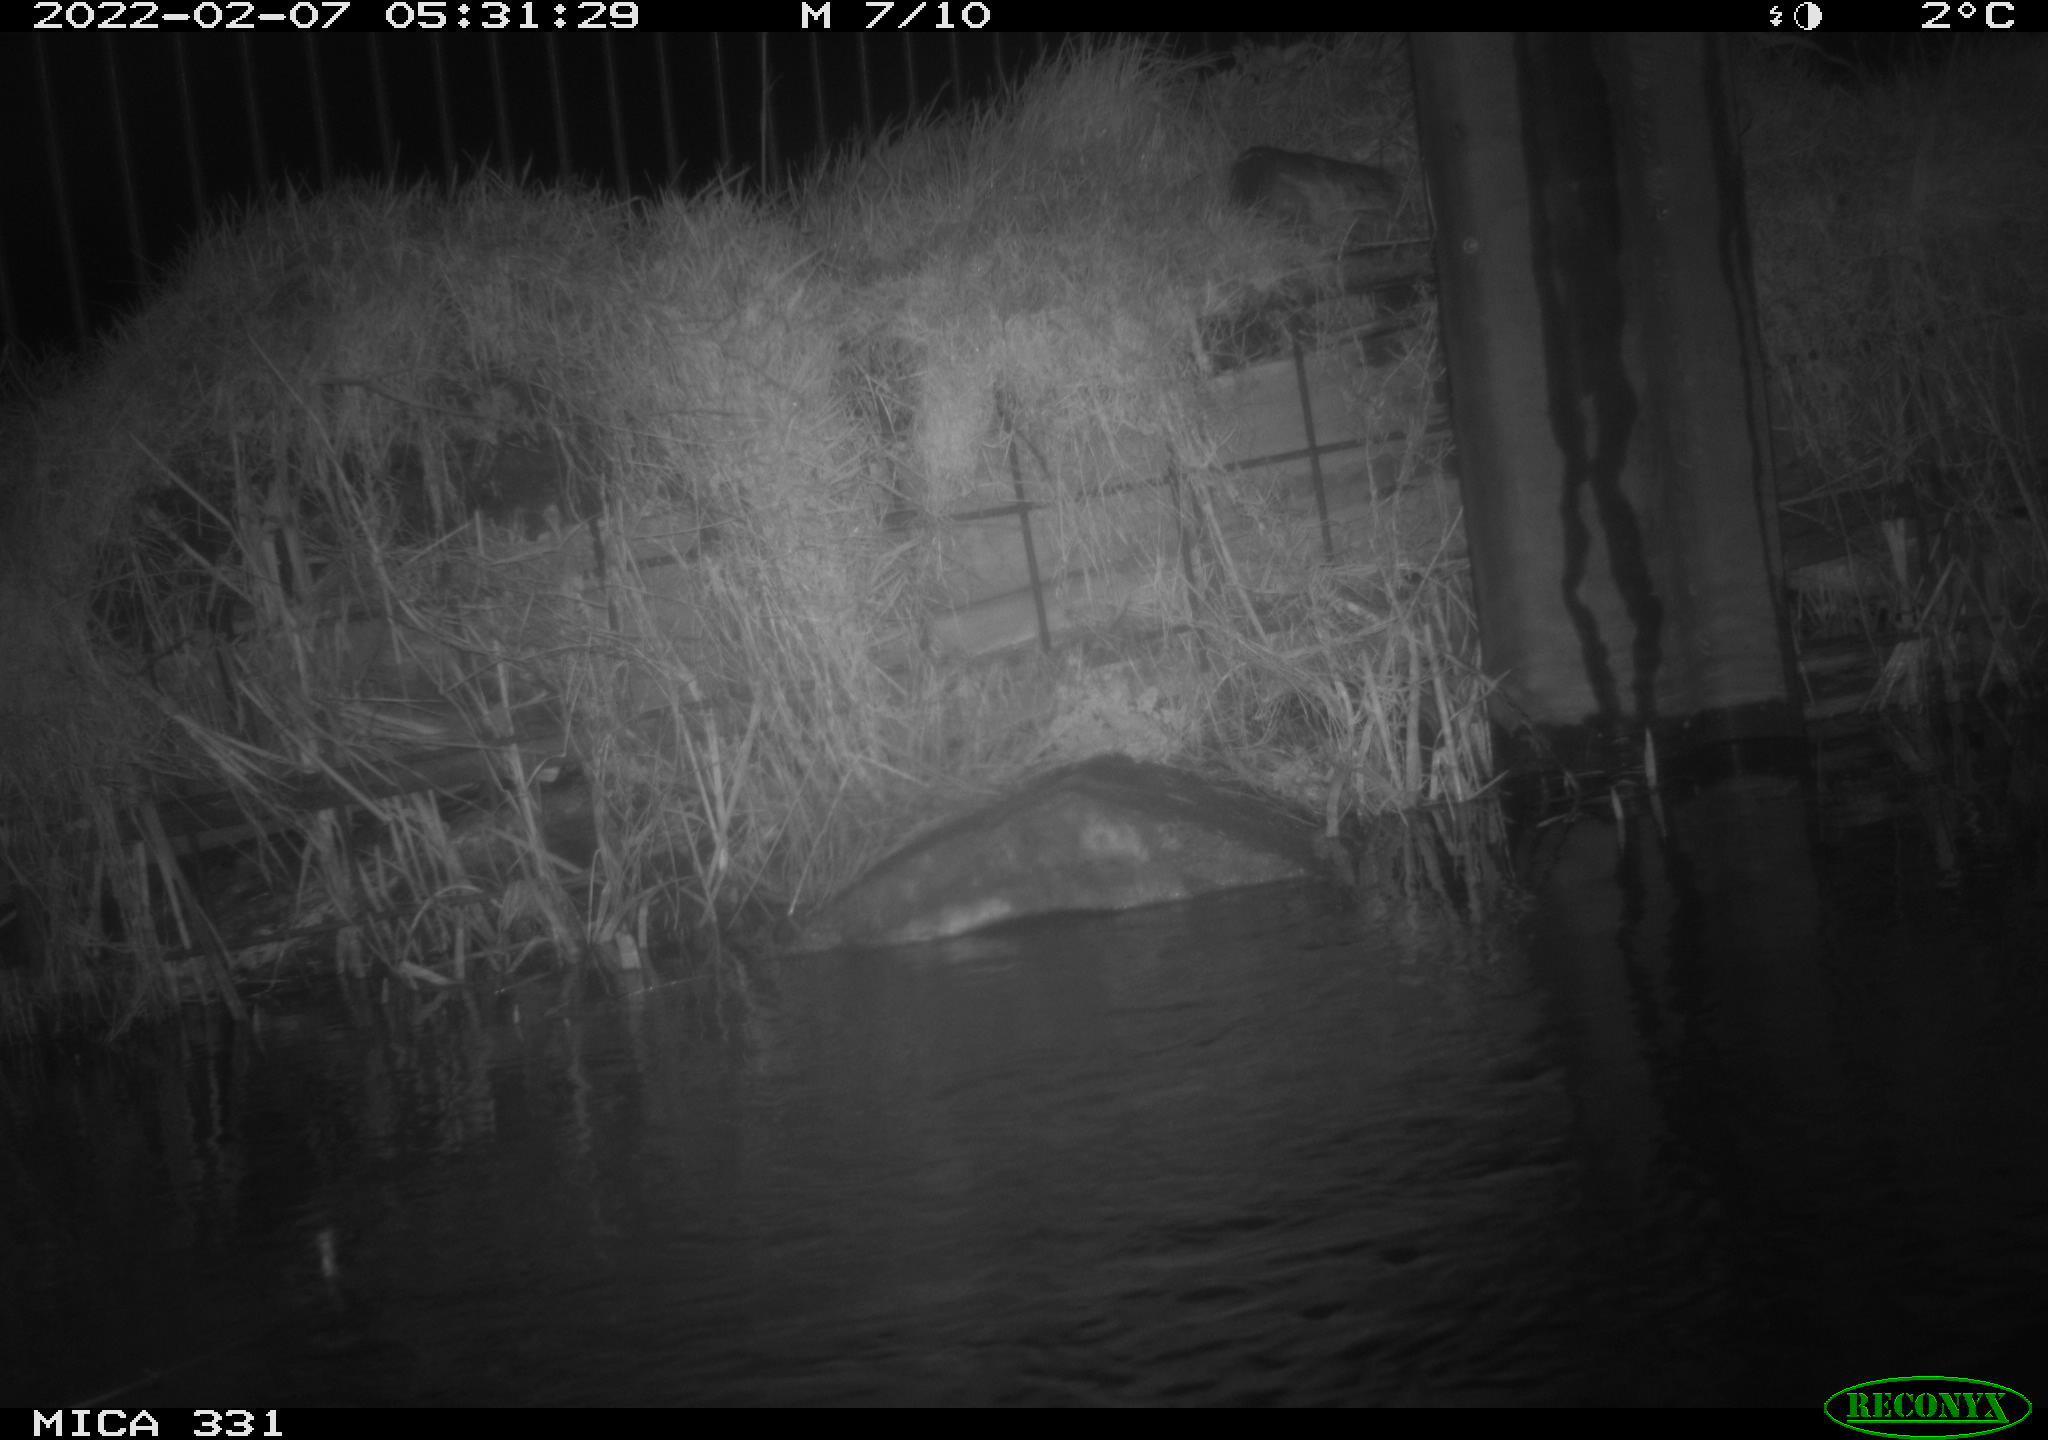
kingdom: Animalia
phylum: Chordata
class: Mammalia
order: Rodentia
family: Muridae
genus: Rattus
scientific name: Rattus norvegicus
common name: Brown rat
